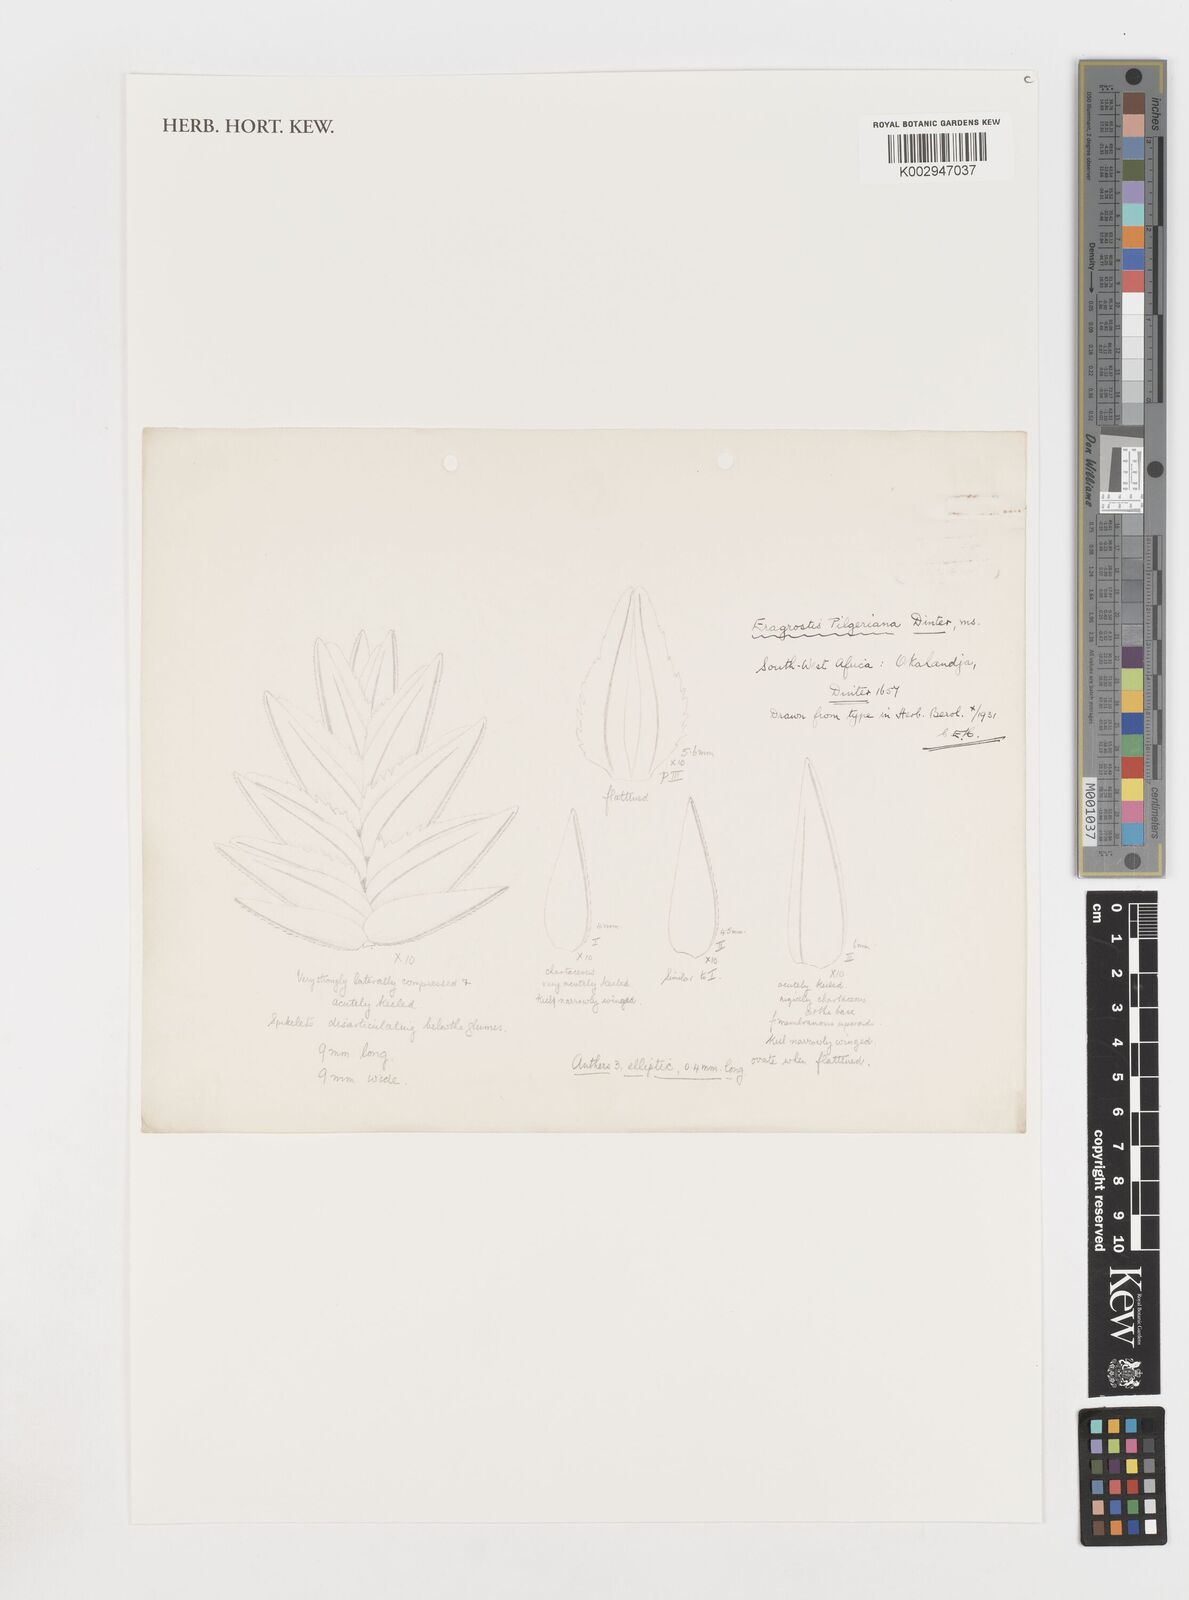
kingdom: Plantae
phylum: Tracheophyta
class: Liliopsida
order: Poales
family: Poaceae
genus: Eragrostis
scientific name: Eragrostis pilgeriana
